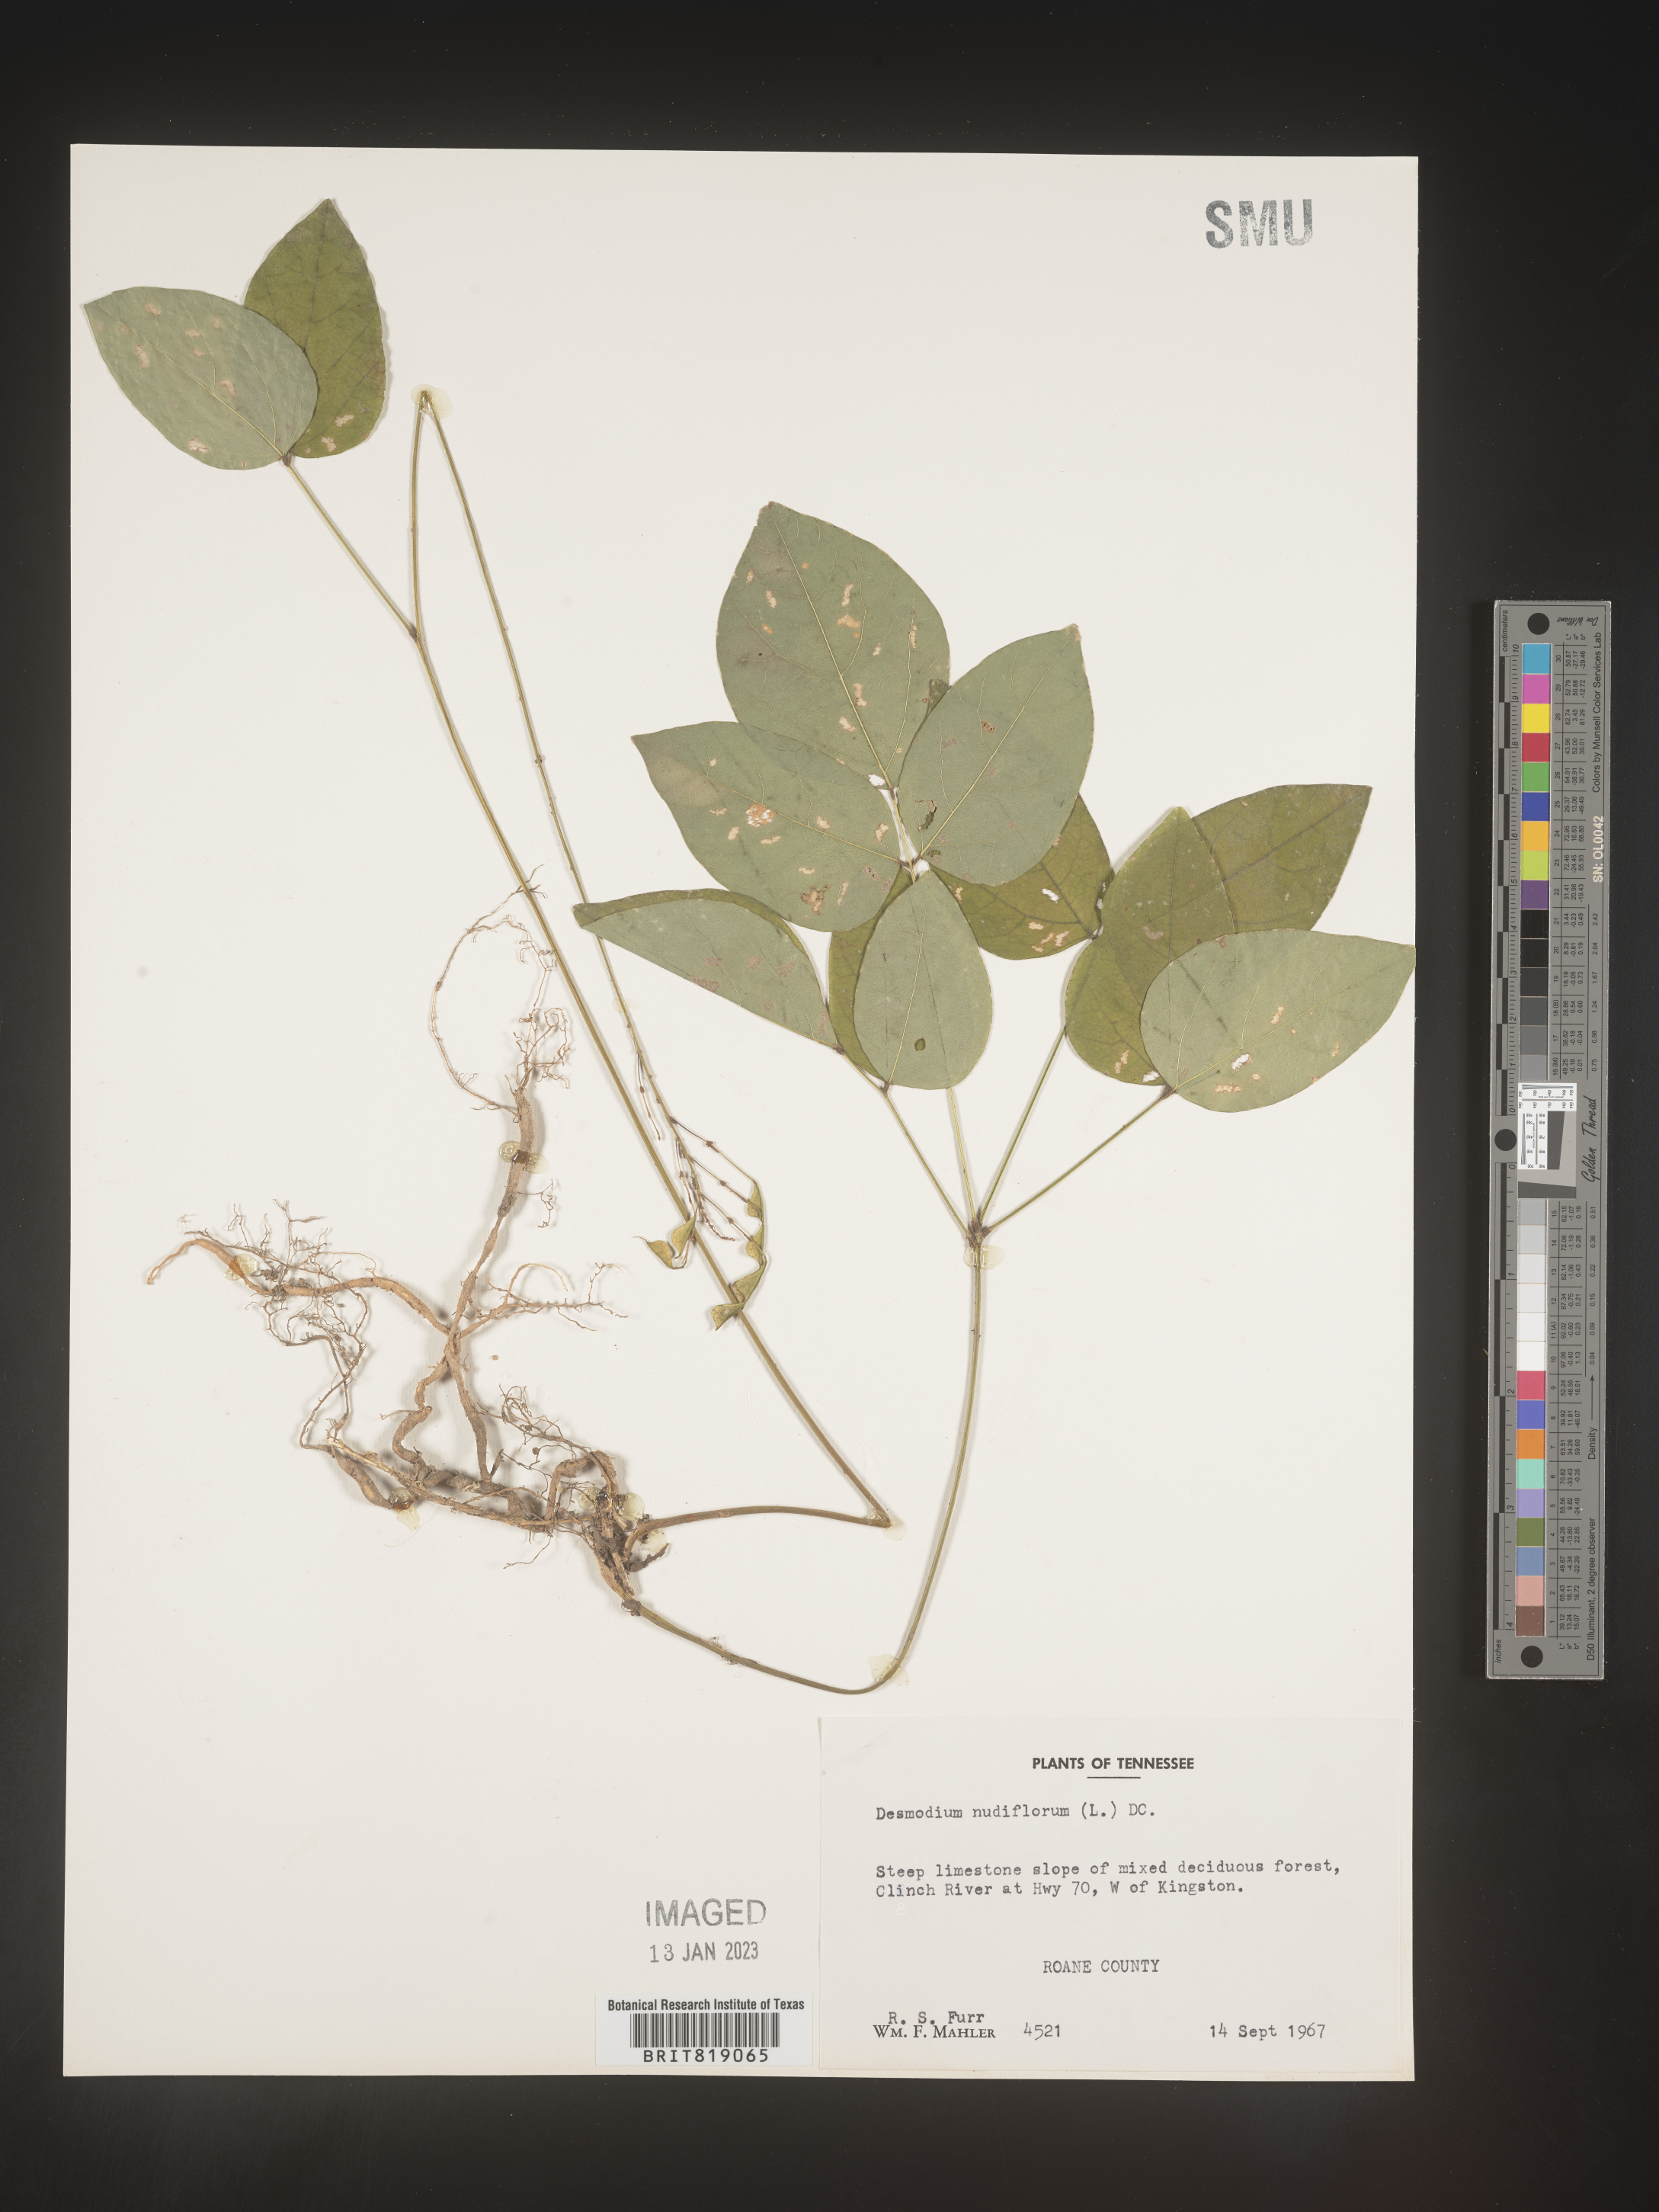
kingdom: Plantae
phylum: Tracheophyta
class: Magnoliopsida
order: Fabales
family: Fabaceae
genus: Hylodesmum
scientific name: Hylodesmum nudiflorum
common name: Bare-stemmed tick-trefoil
